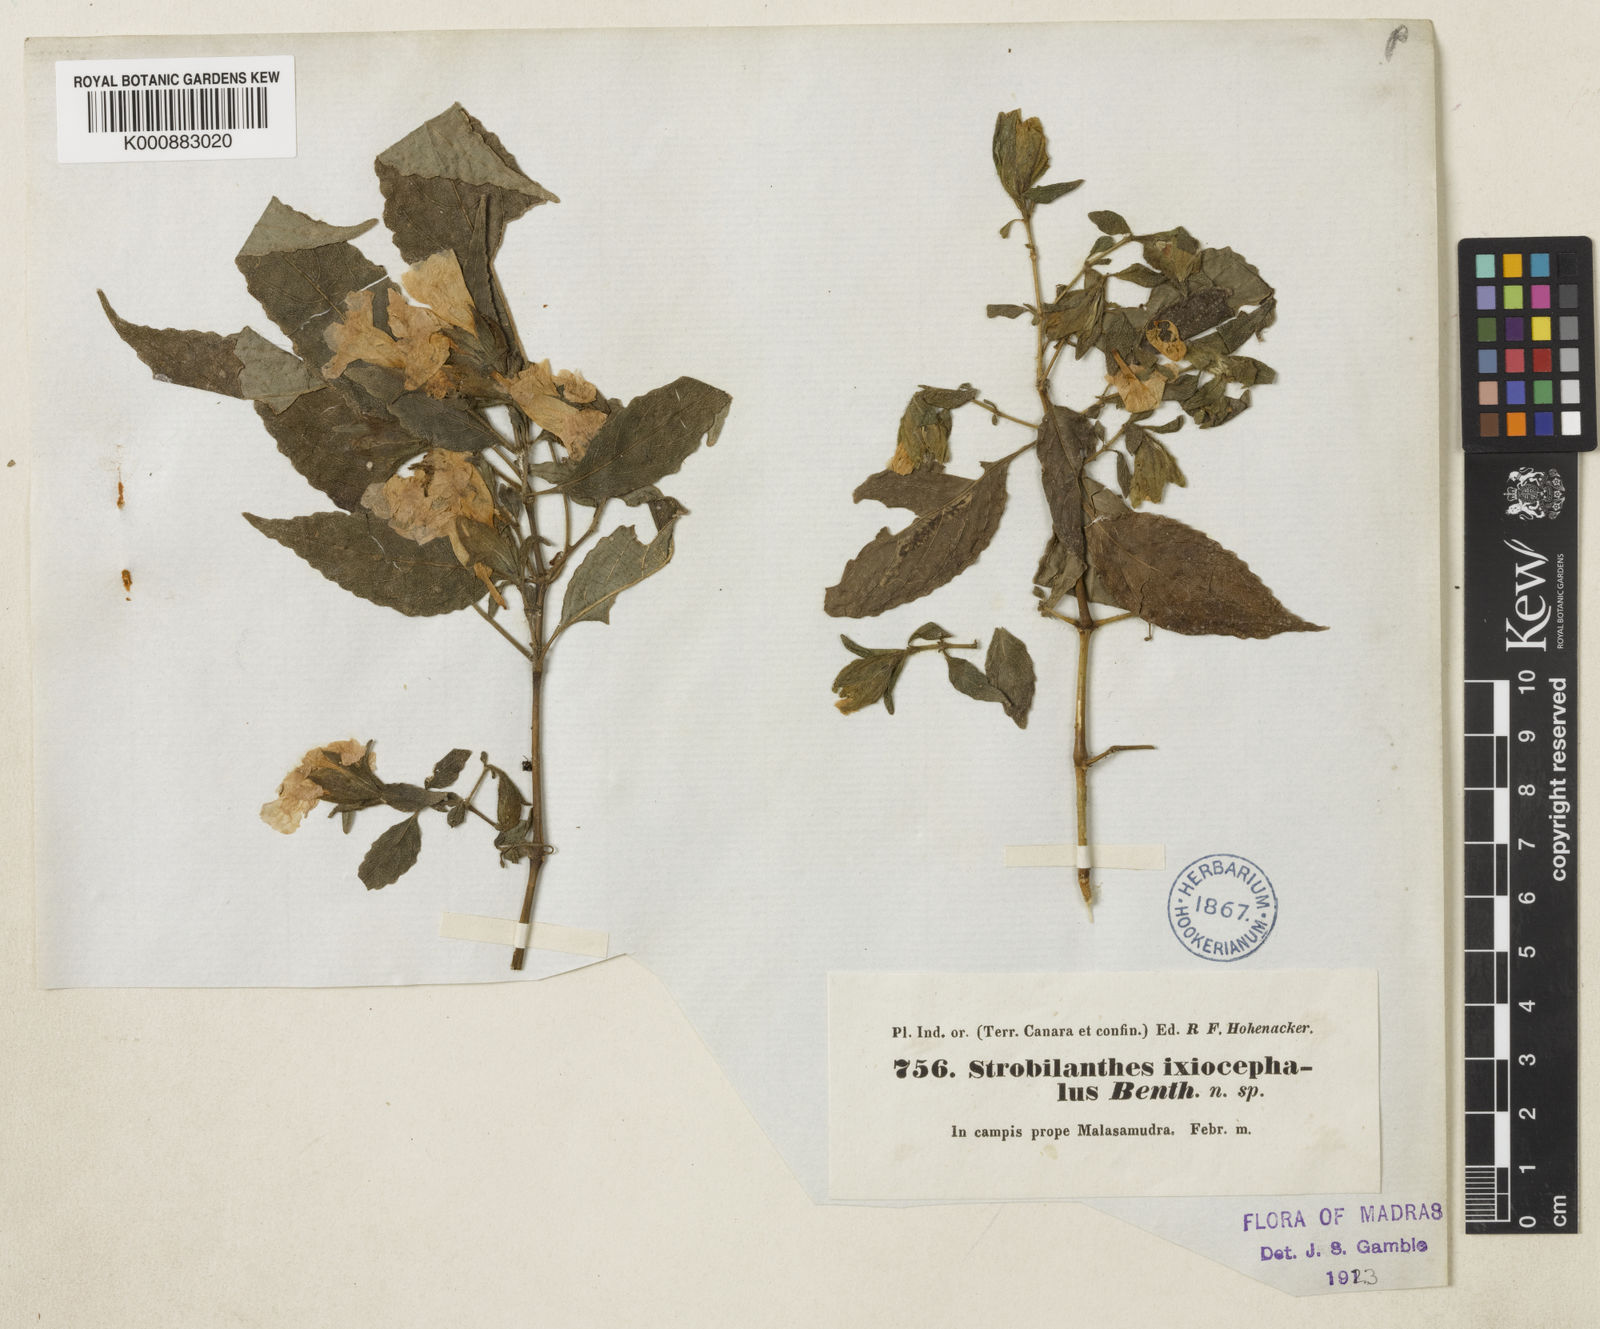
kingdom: Plantae
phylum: Tracheophyta
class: Magnoliopsida
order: Lamiales
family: Acanthaceae
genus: Strobilanthes
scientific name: Strobilanthes ixiocephala
